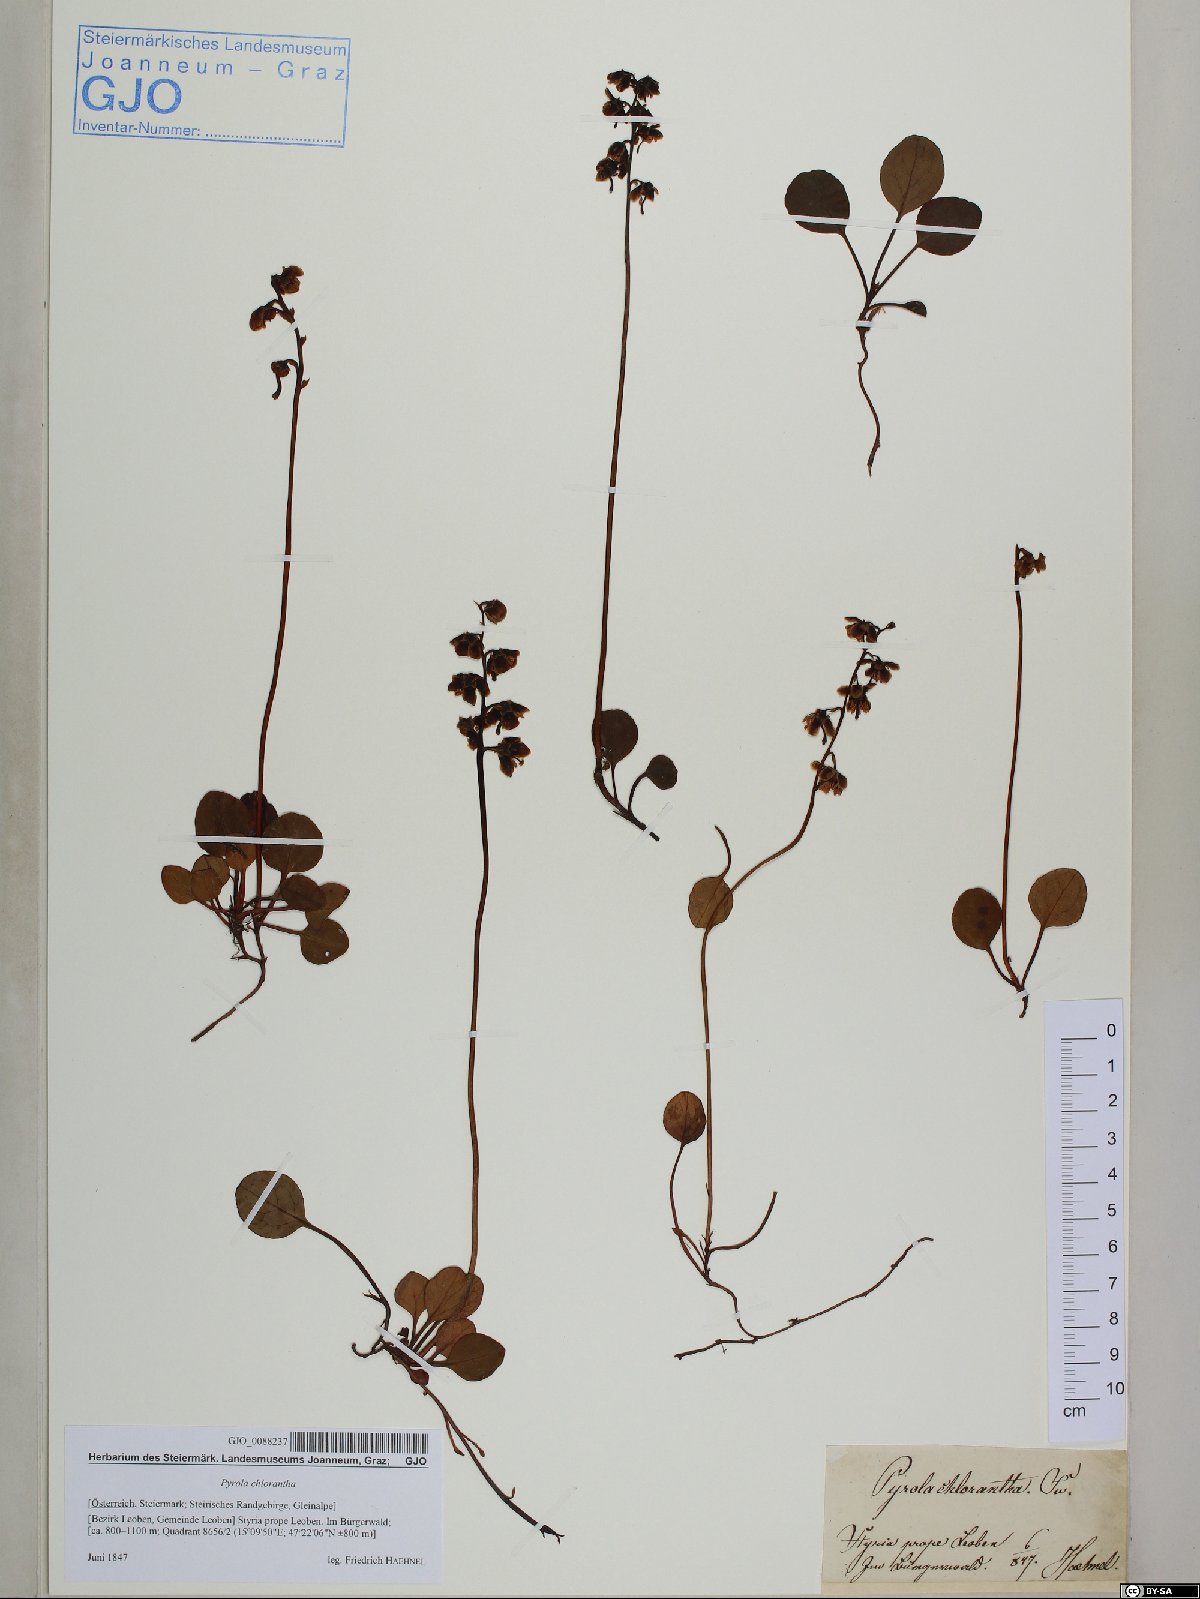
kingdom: Plantae
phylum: Tracheophyta
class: Magnoliopsida
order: Ericales
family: Ericaceae
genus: Pyrola
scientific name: Pyrola chlorantha
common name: Green wintergreen
